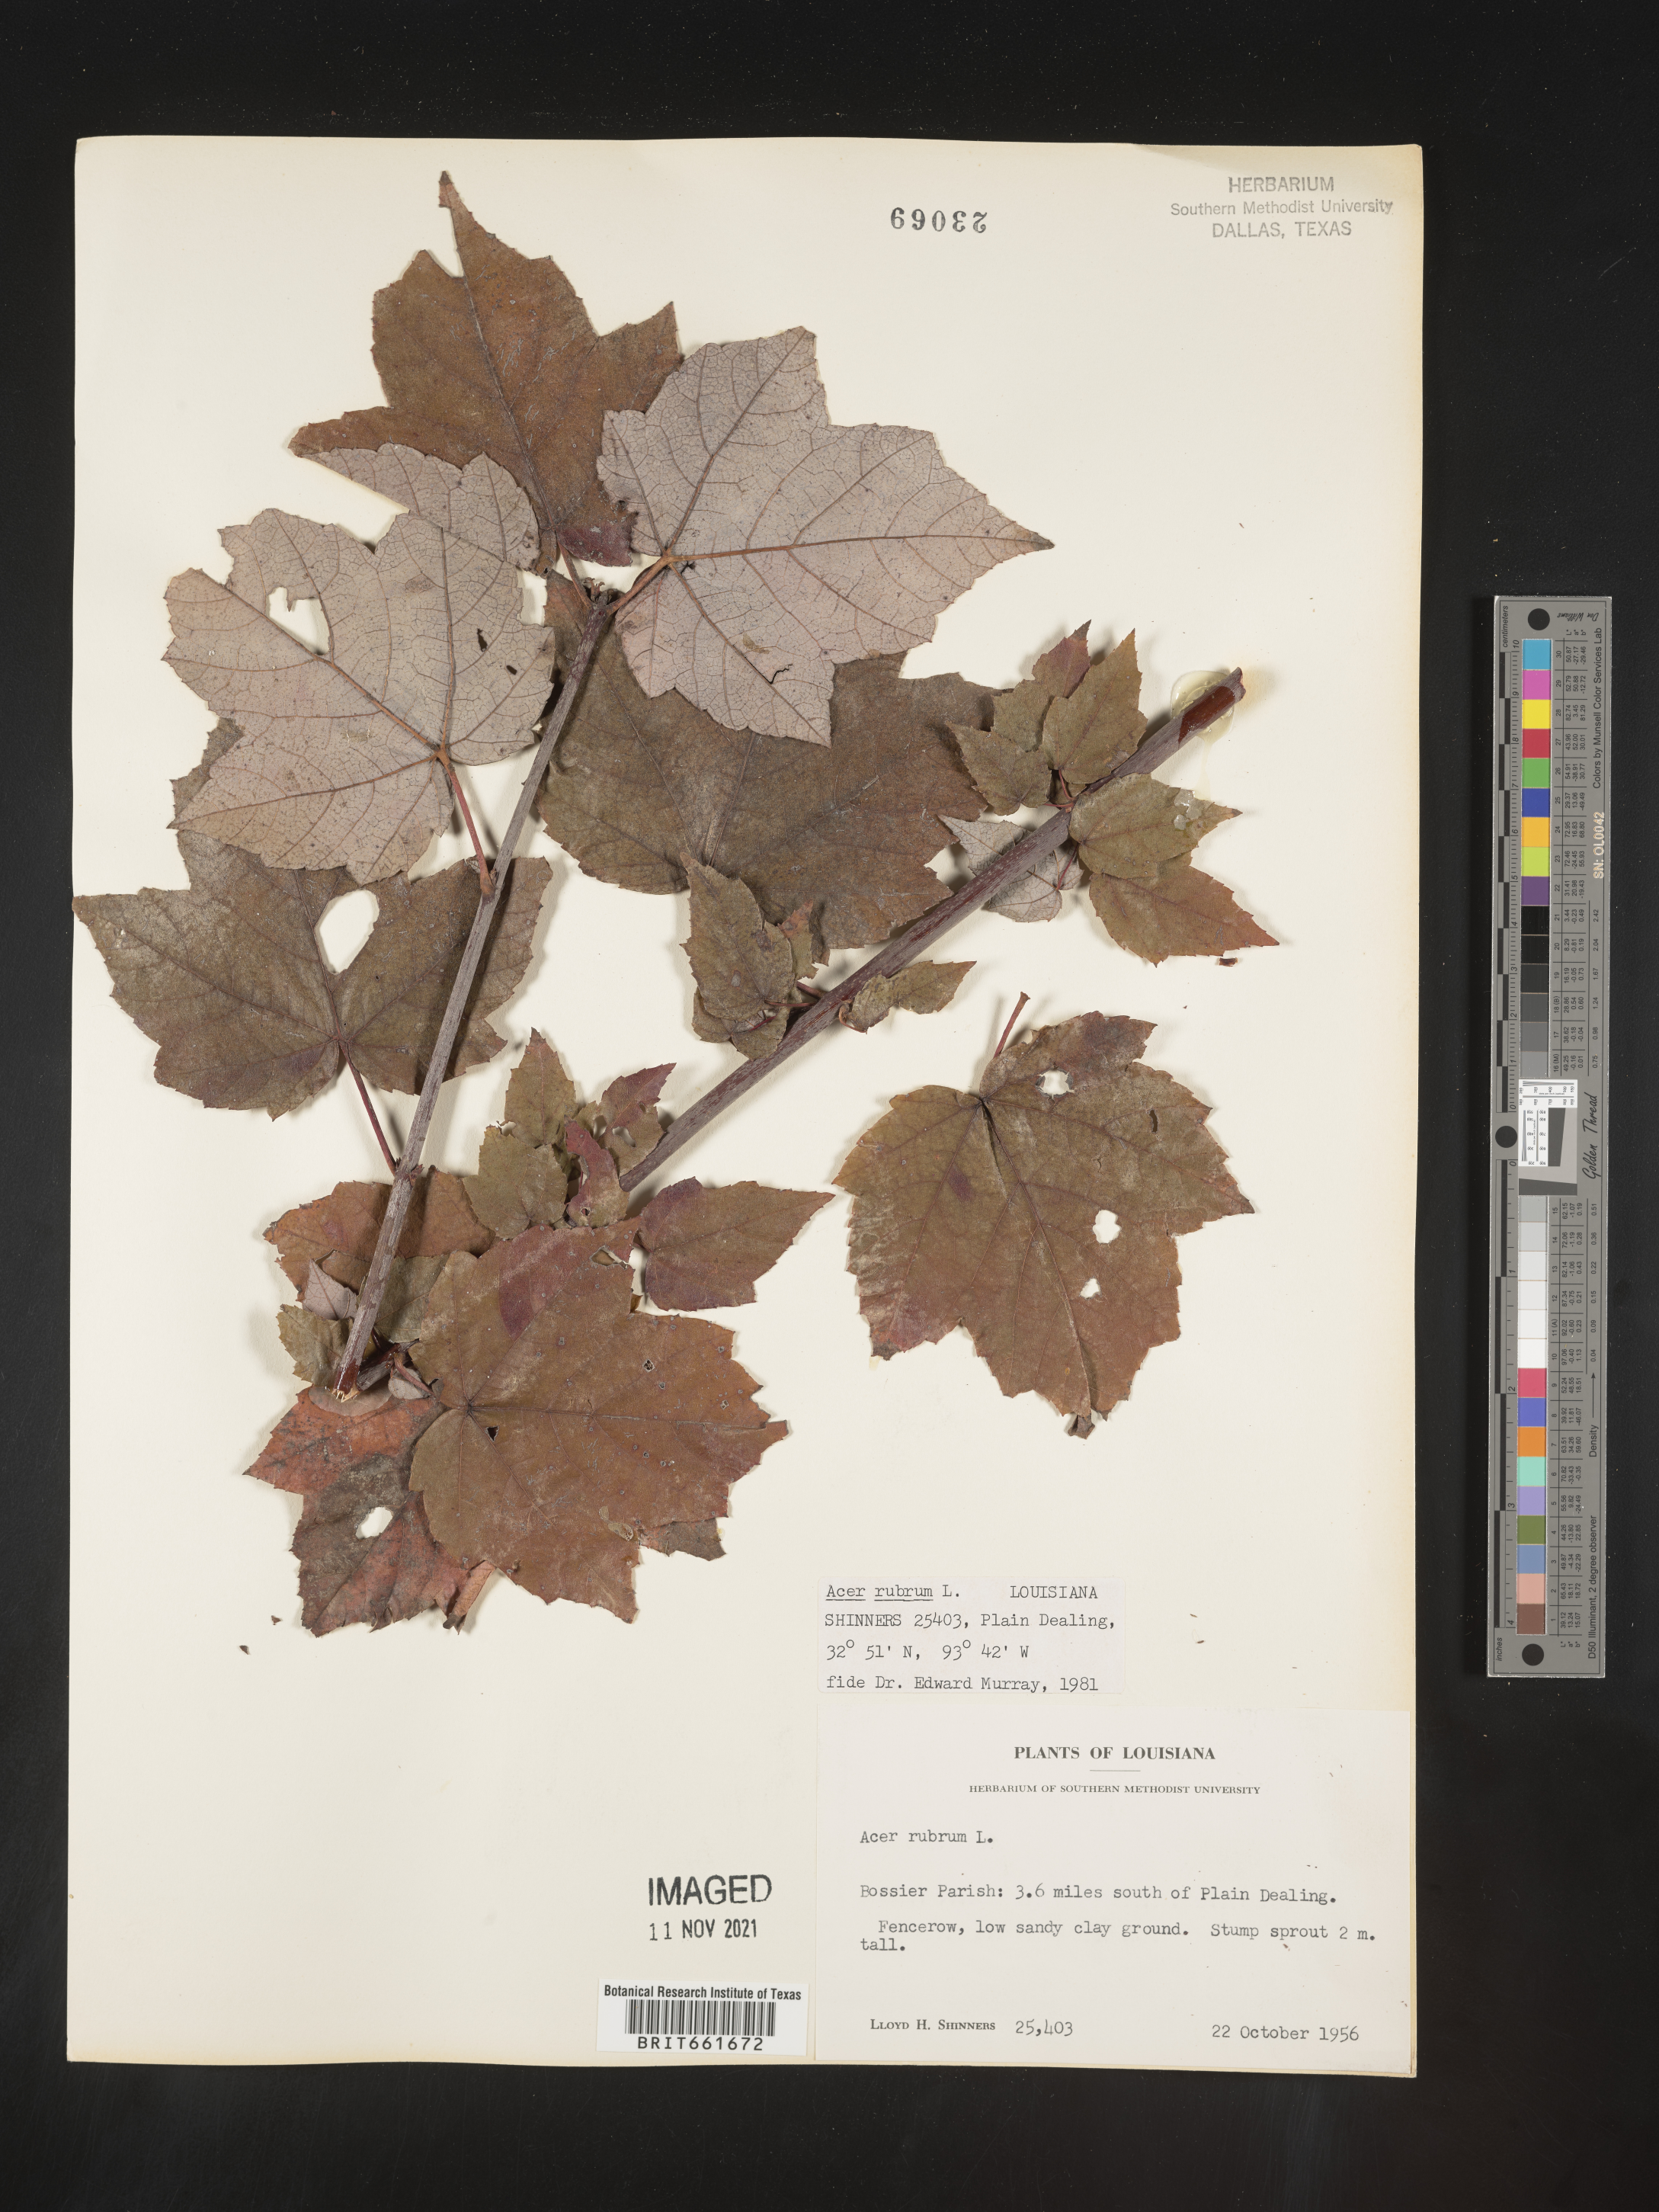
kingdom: Plantae
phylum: Tracheophyta
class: Magnoliopsida
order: Sapindales
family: Sapindaceae
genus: Acer
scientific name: Acer rubrum
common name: Red maple
